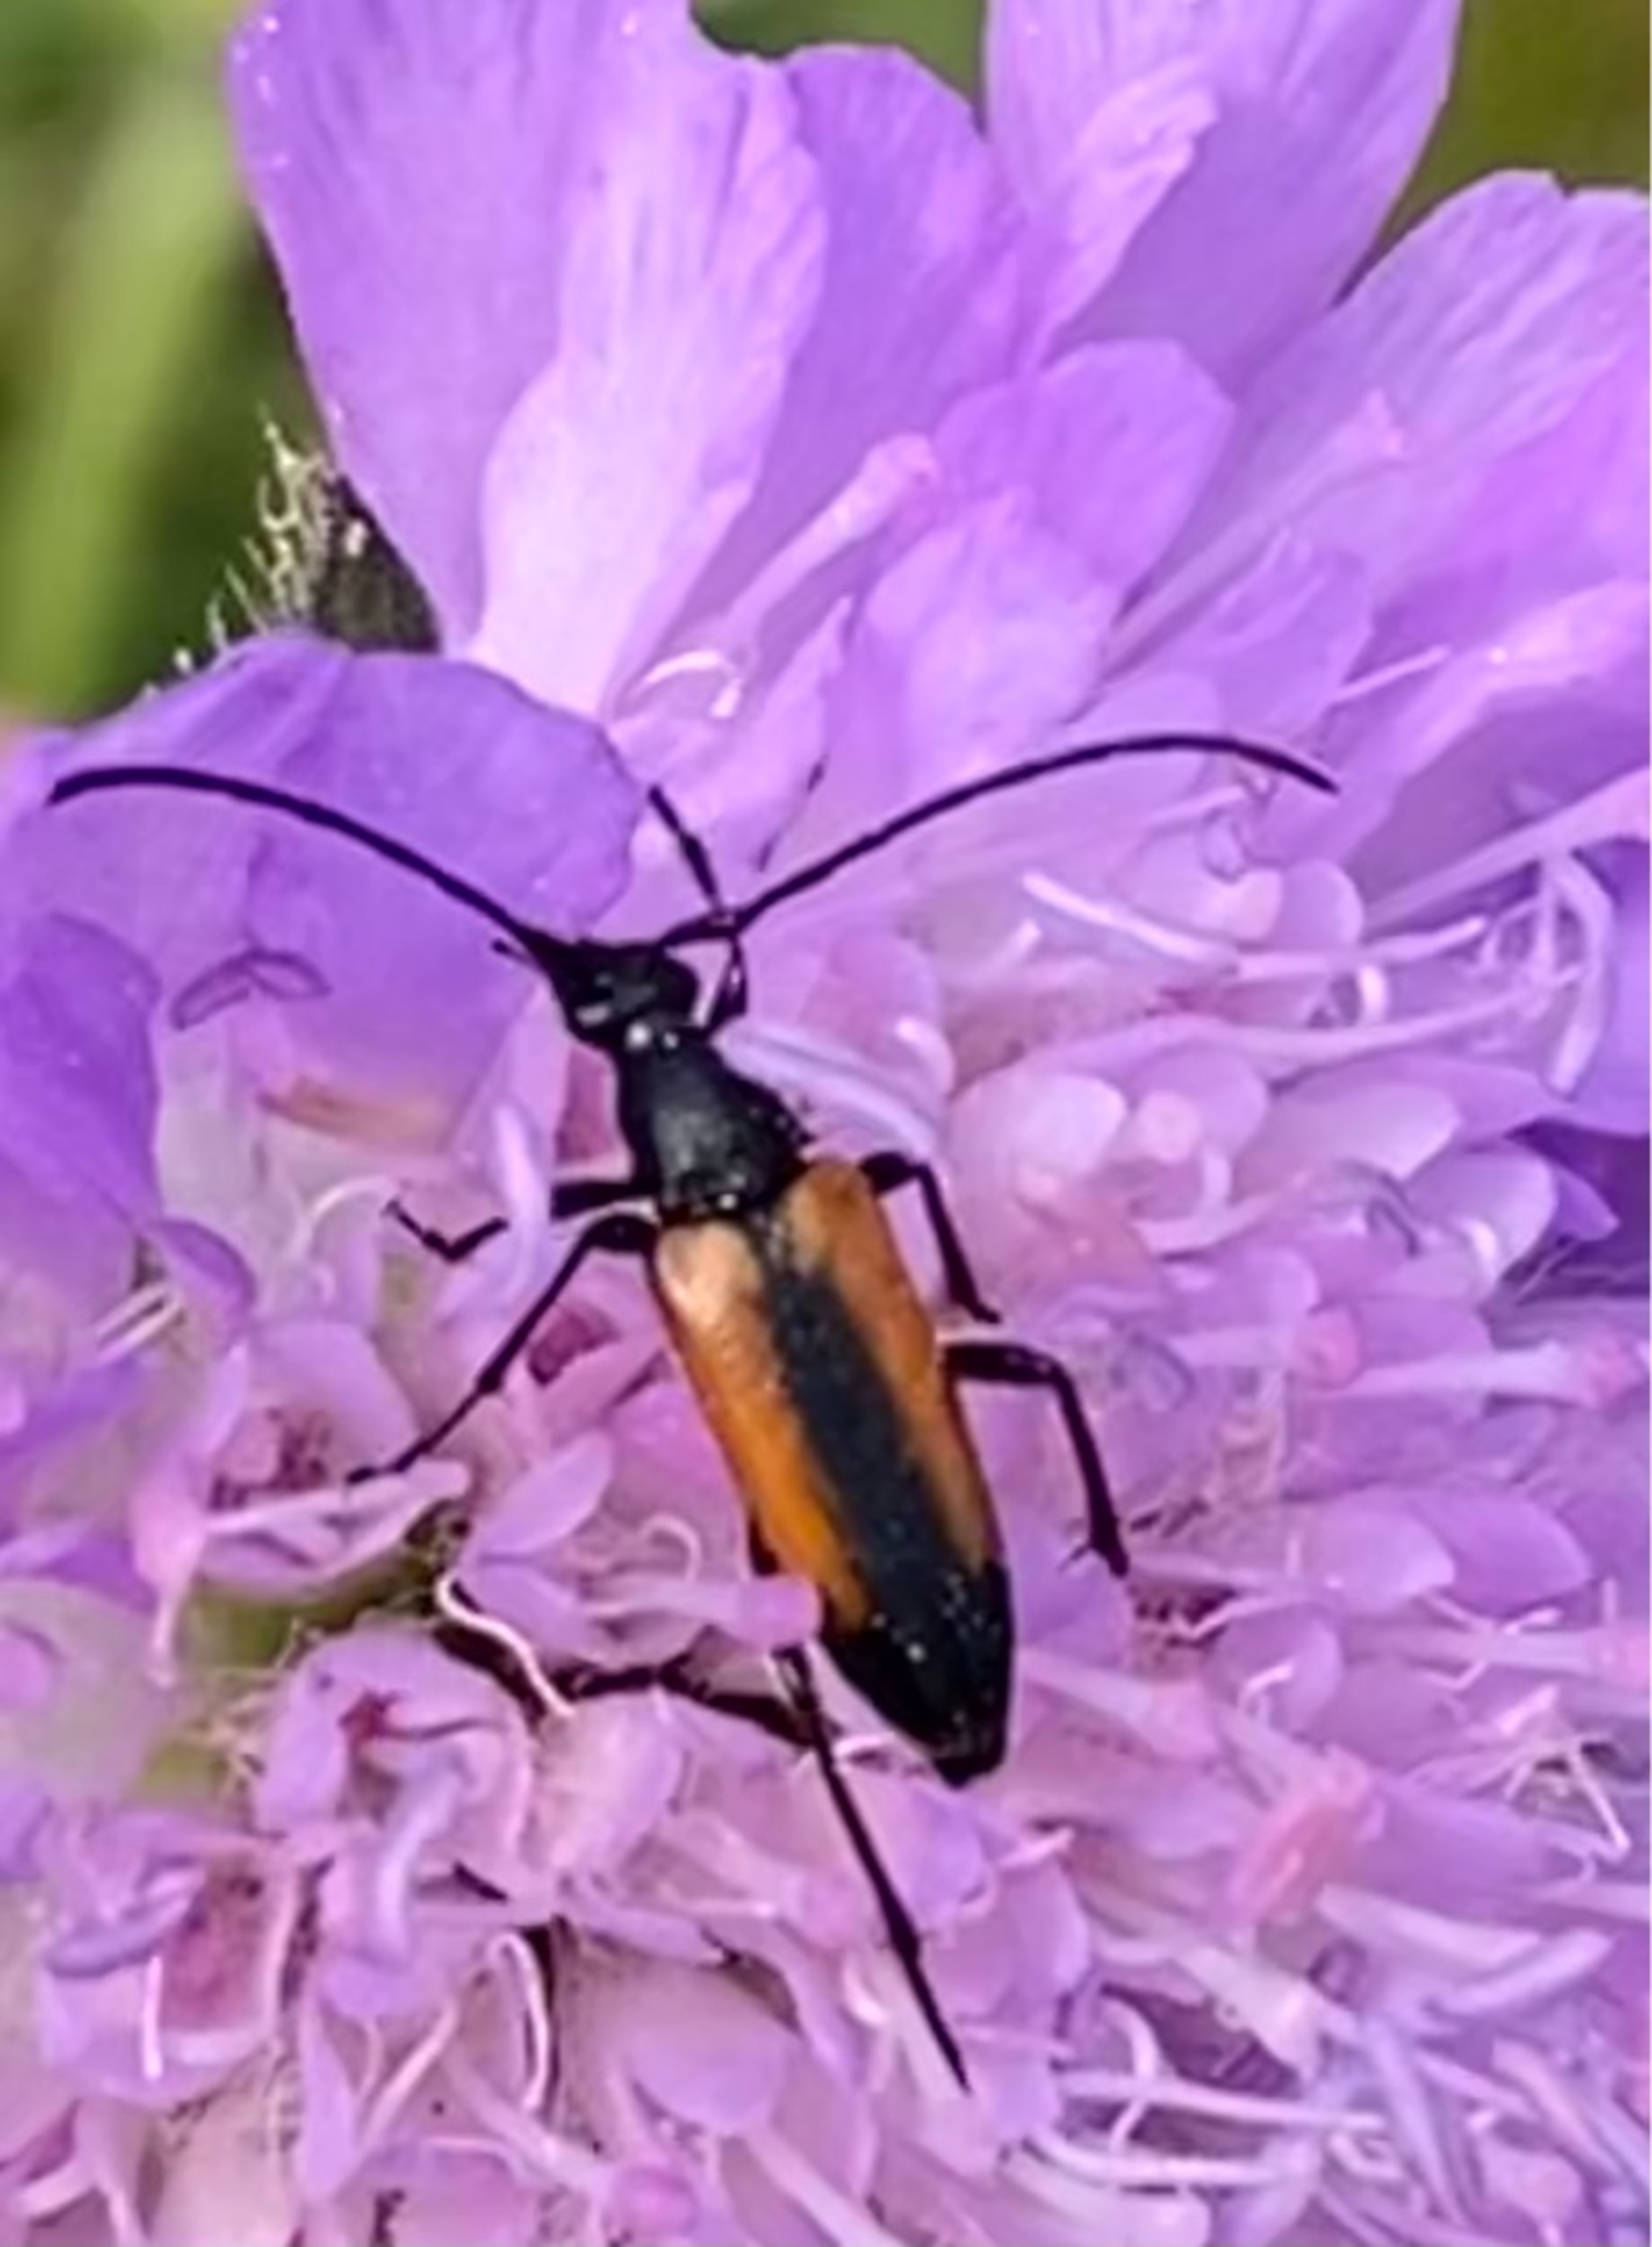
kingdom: Animalia
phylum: Arthropoda
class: Insecta
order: Coleoptera
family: Cerambycidae
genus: Stenurella
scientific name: Stenurella melanura
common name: Sortsømmet blomsterbuk
